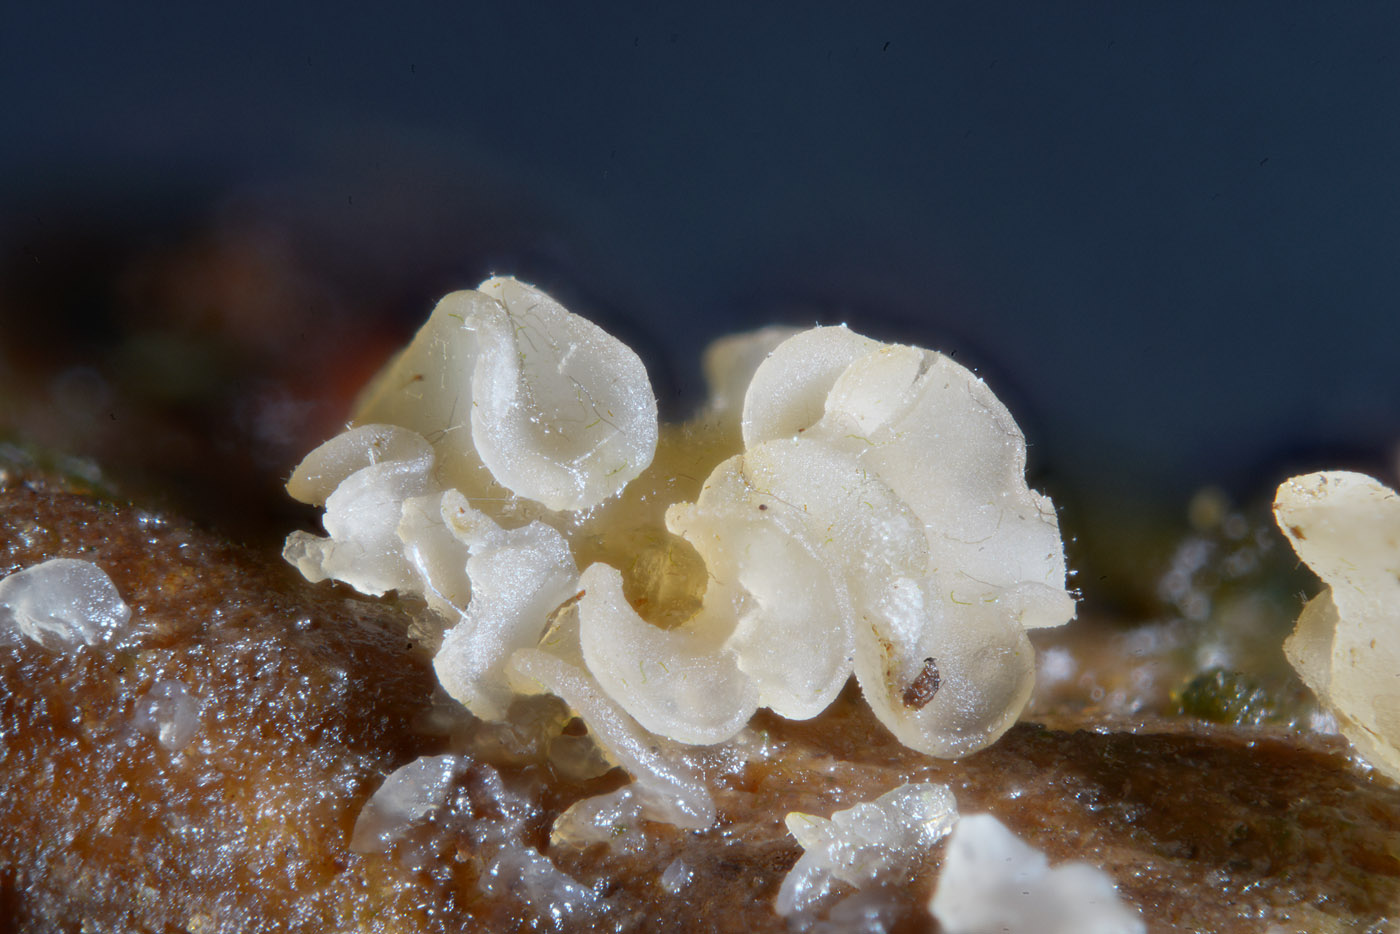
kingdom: Fungi
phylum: Ascomycota
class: Orbiliomycetes
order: Orbiliales
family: Orbiliaceae
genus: Orbilia
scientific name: Orbilia auricolor
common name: gylden voksskive
